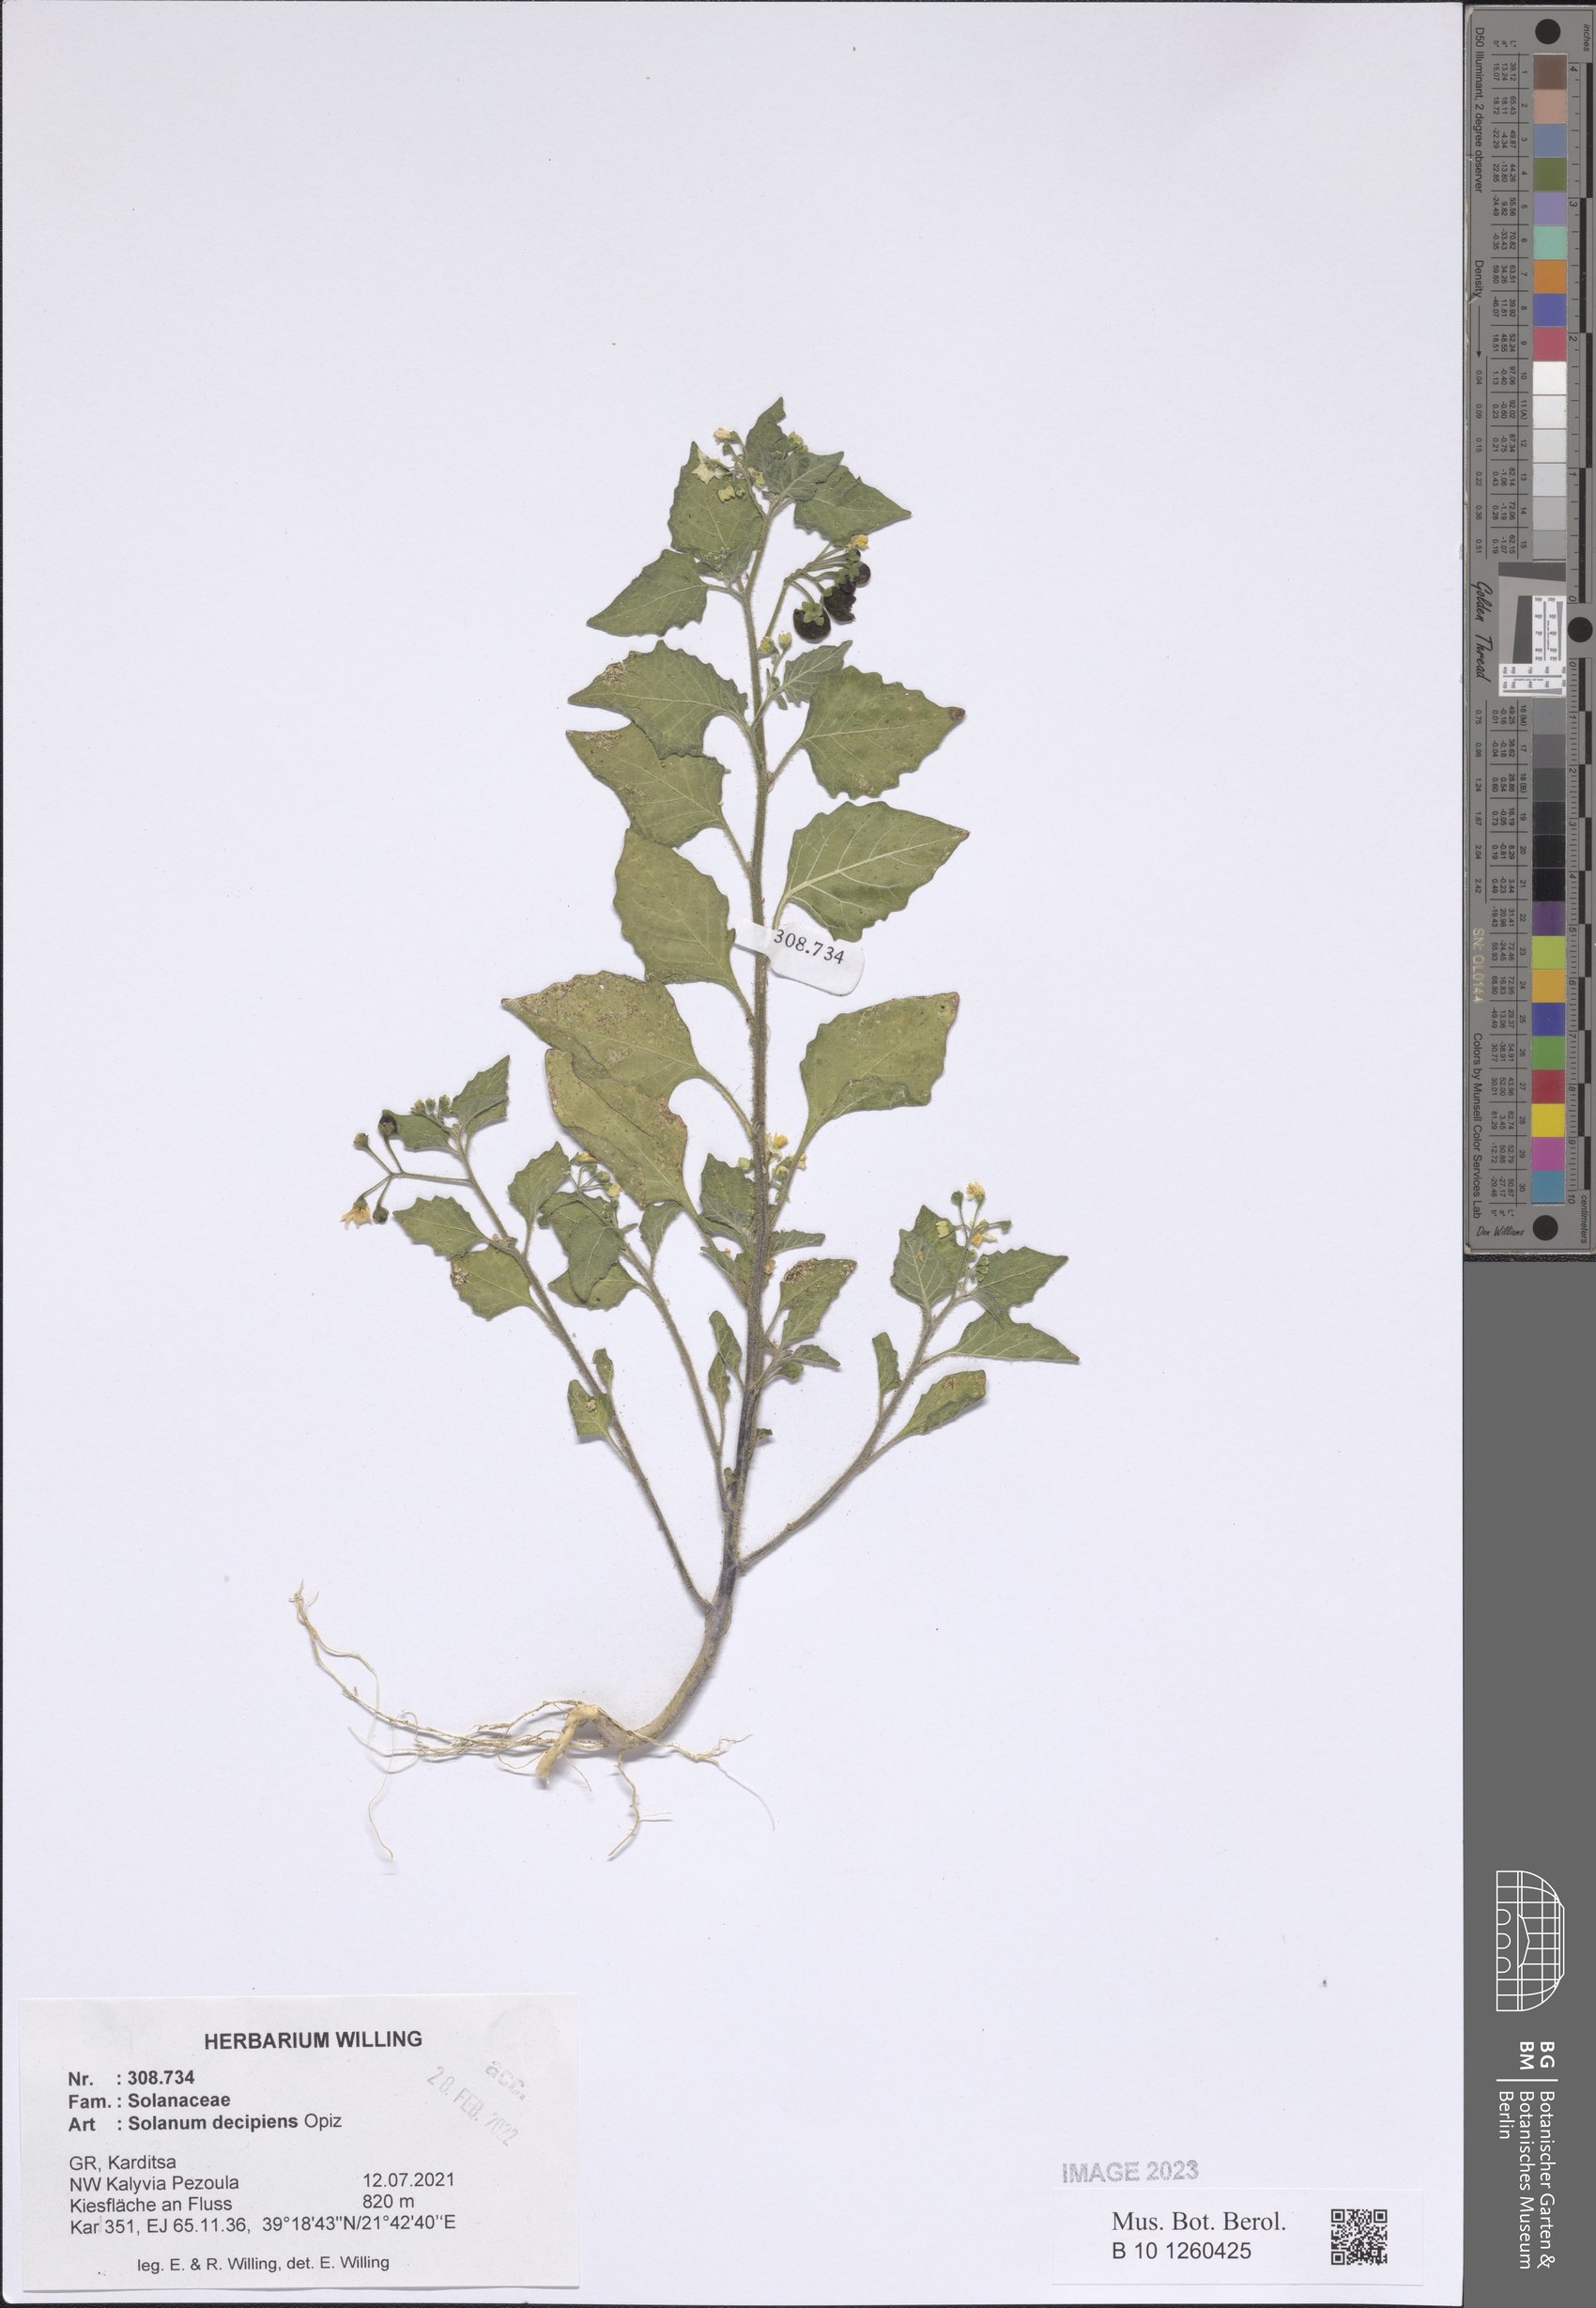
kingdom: Plantae
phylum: Tracheophyta
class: Magnoliopsida
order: Solanales
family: Solanaceae
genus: Solanum
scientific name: Solanum decipiens
